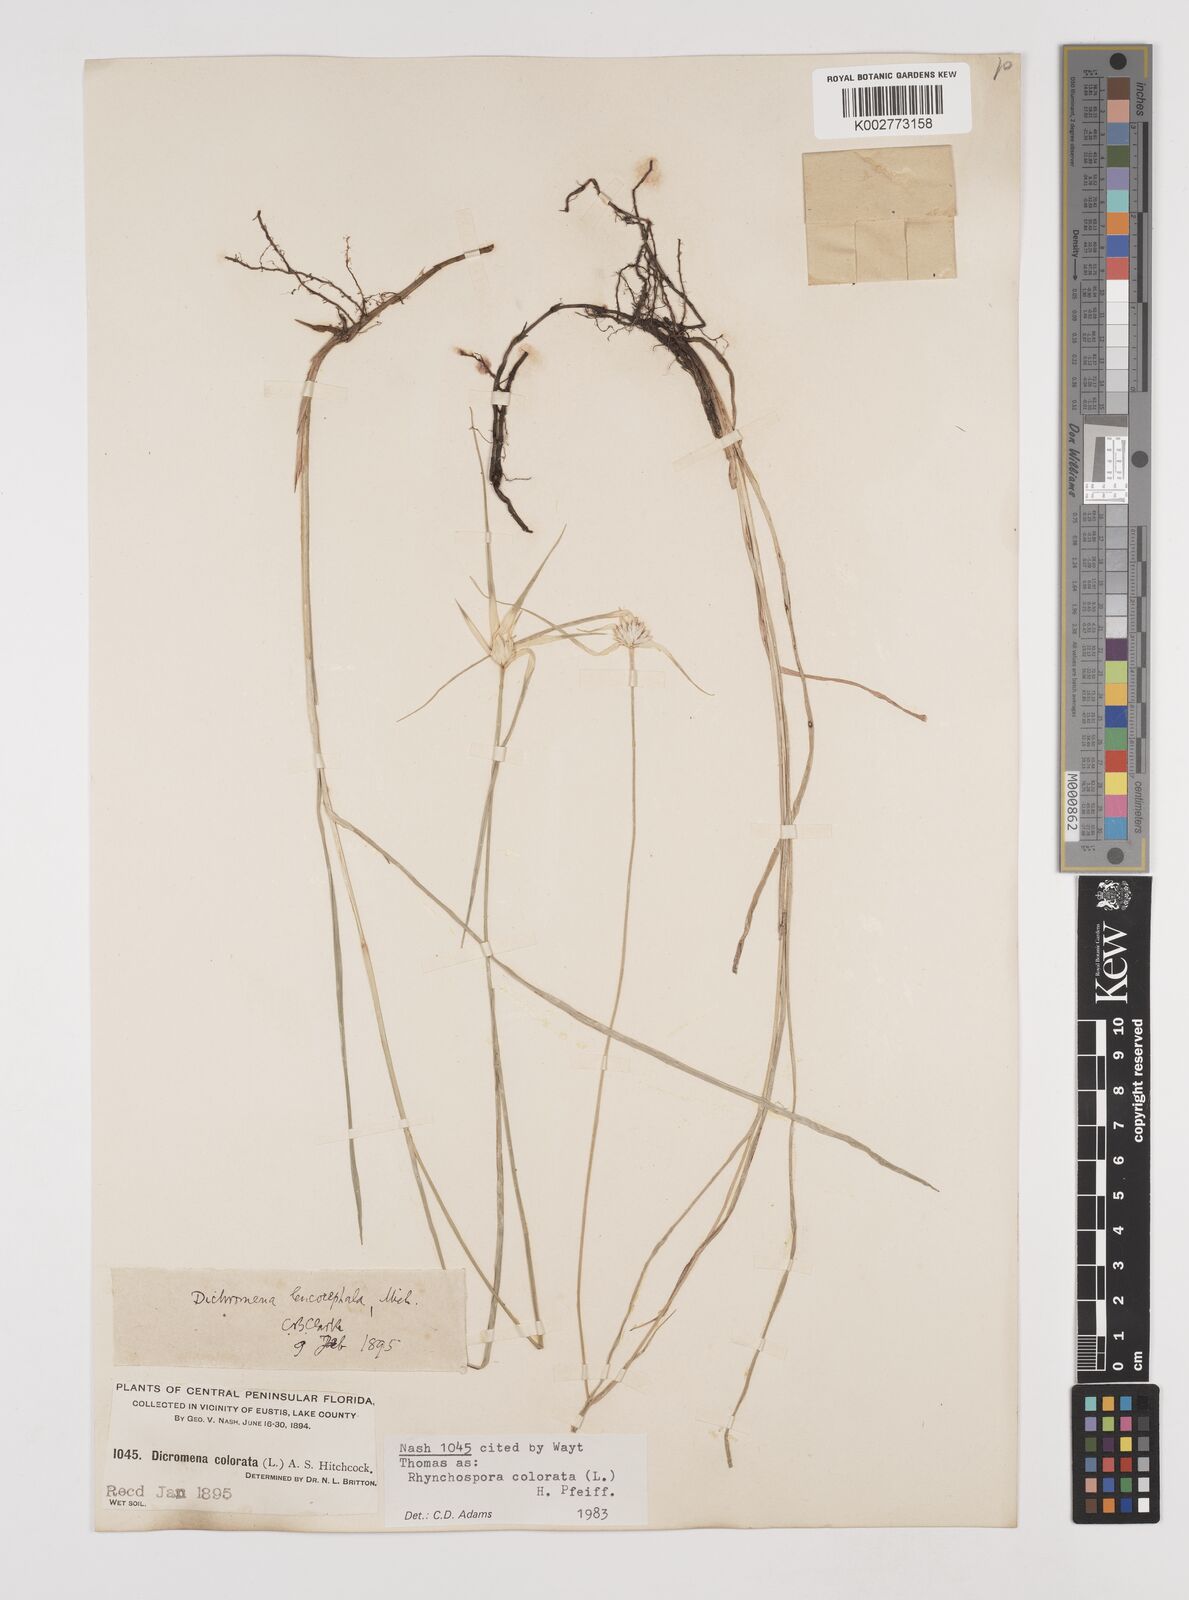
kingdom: Plantae
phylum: Tracheophyta
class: Liliopsida
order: Poales
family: Cyperaceae
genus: Rhynchospora
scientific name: Rhynchospora colorata
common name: Star sedge
